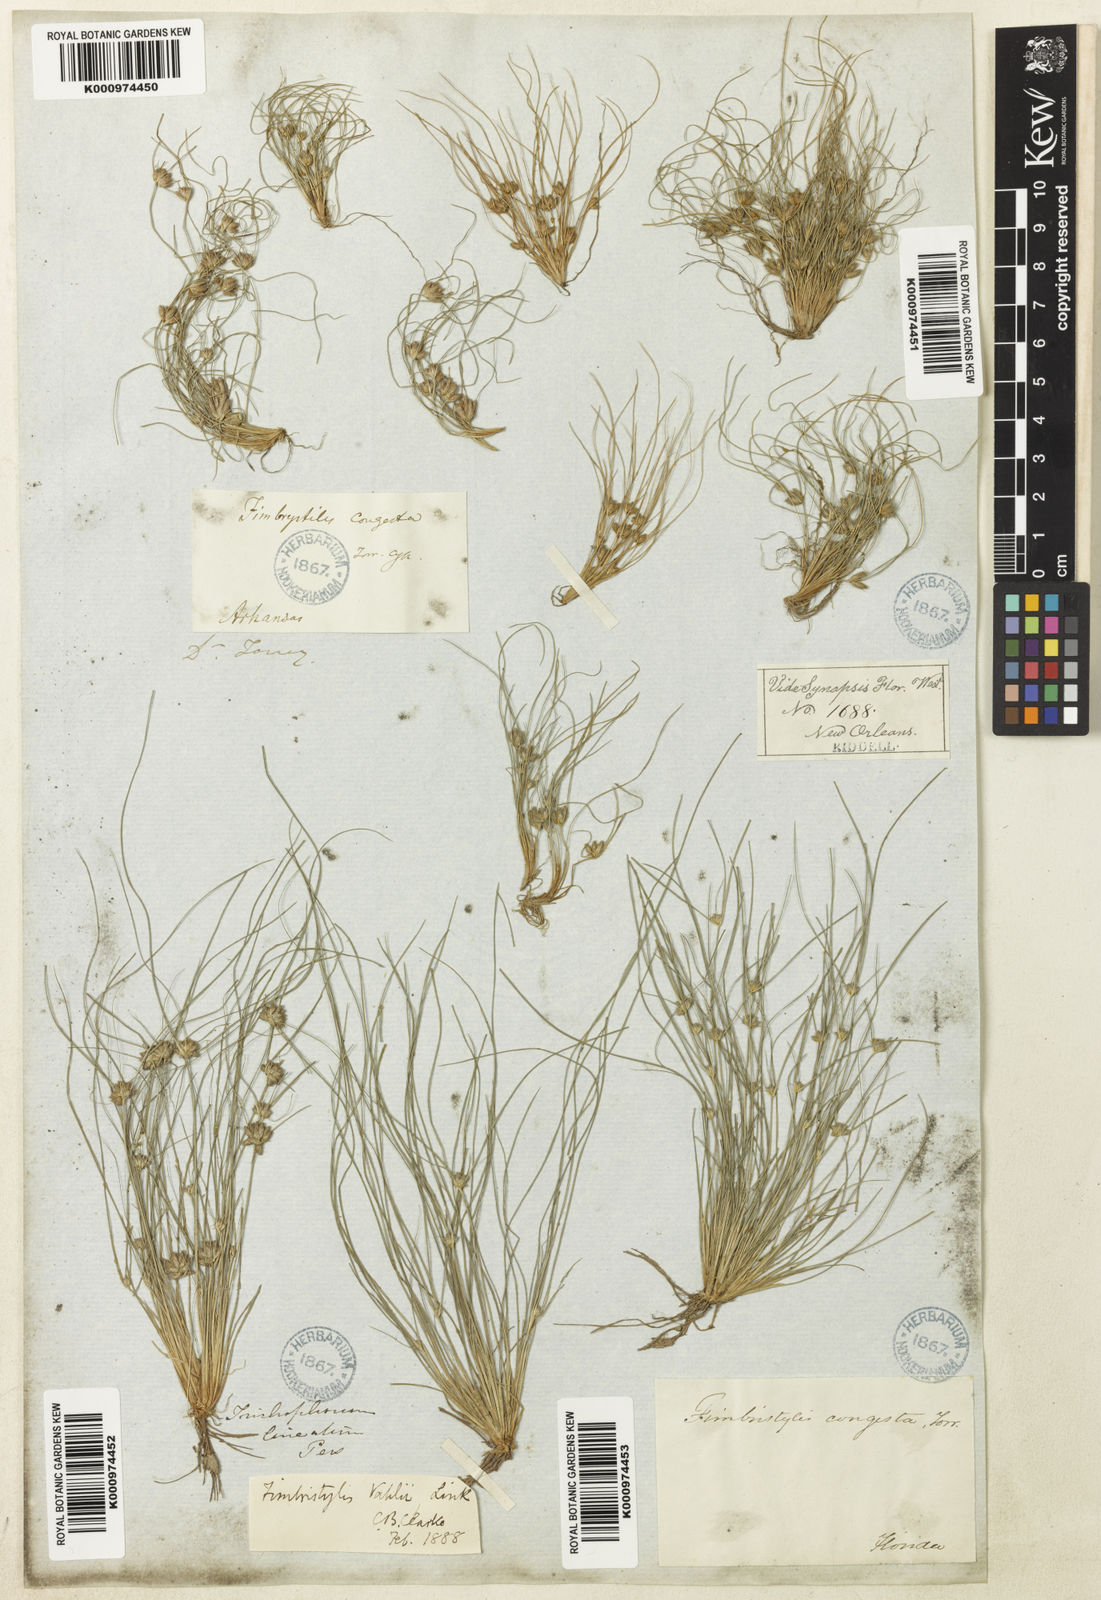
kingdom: Plantae
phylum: Tracheophyta
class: Liliopsida
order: Poales
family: Cyperaceae
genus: Fimbristylis
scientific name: Fimbristylis vahlii
